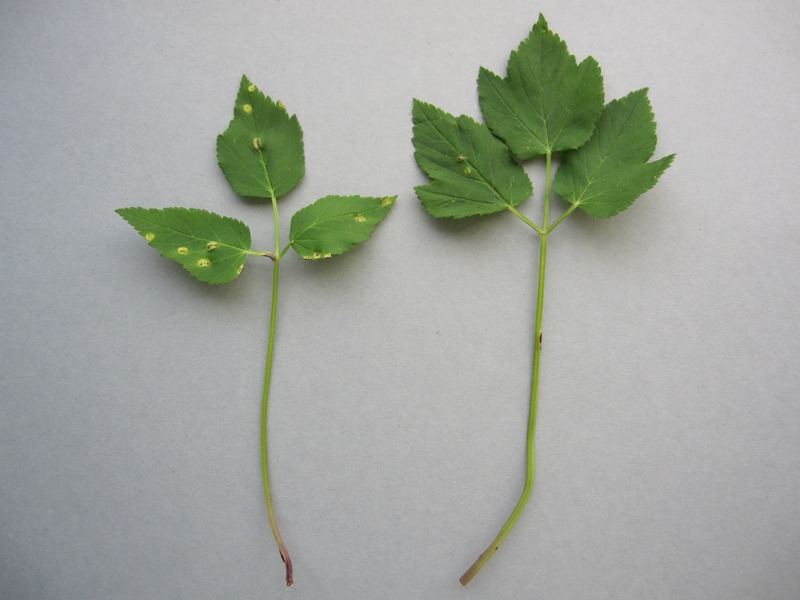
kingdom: Fungi
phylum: Basidiomycota
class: Pucciniomycetes
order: Pucciniales
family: Pucciniaceae
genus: Puccinia
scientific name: Puccinia
